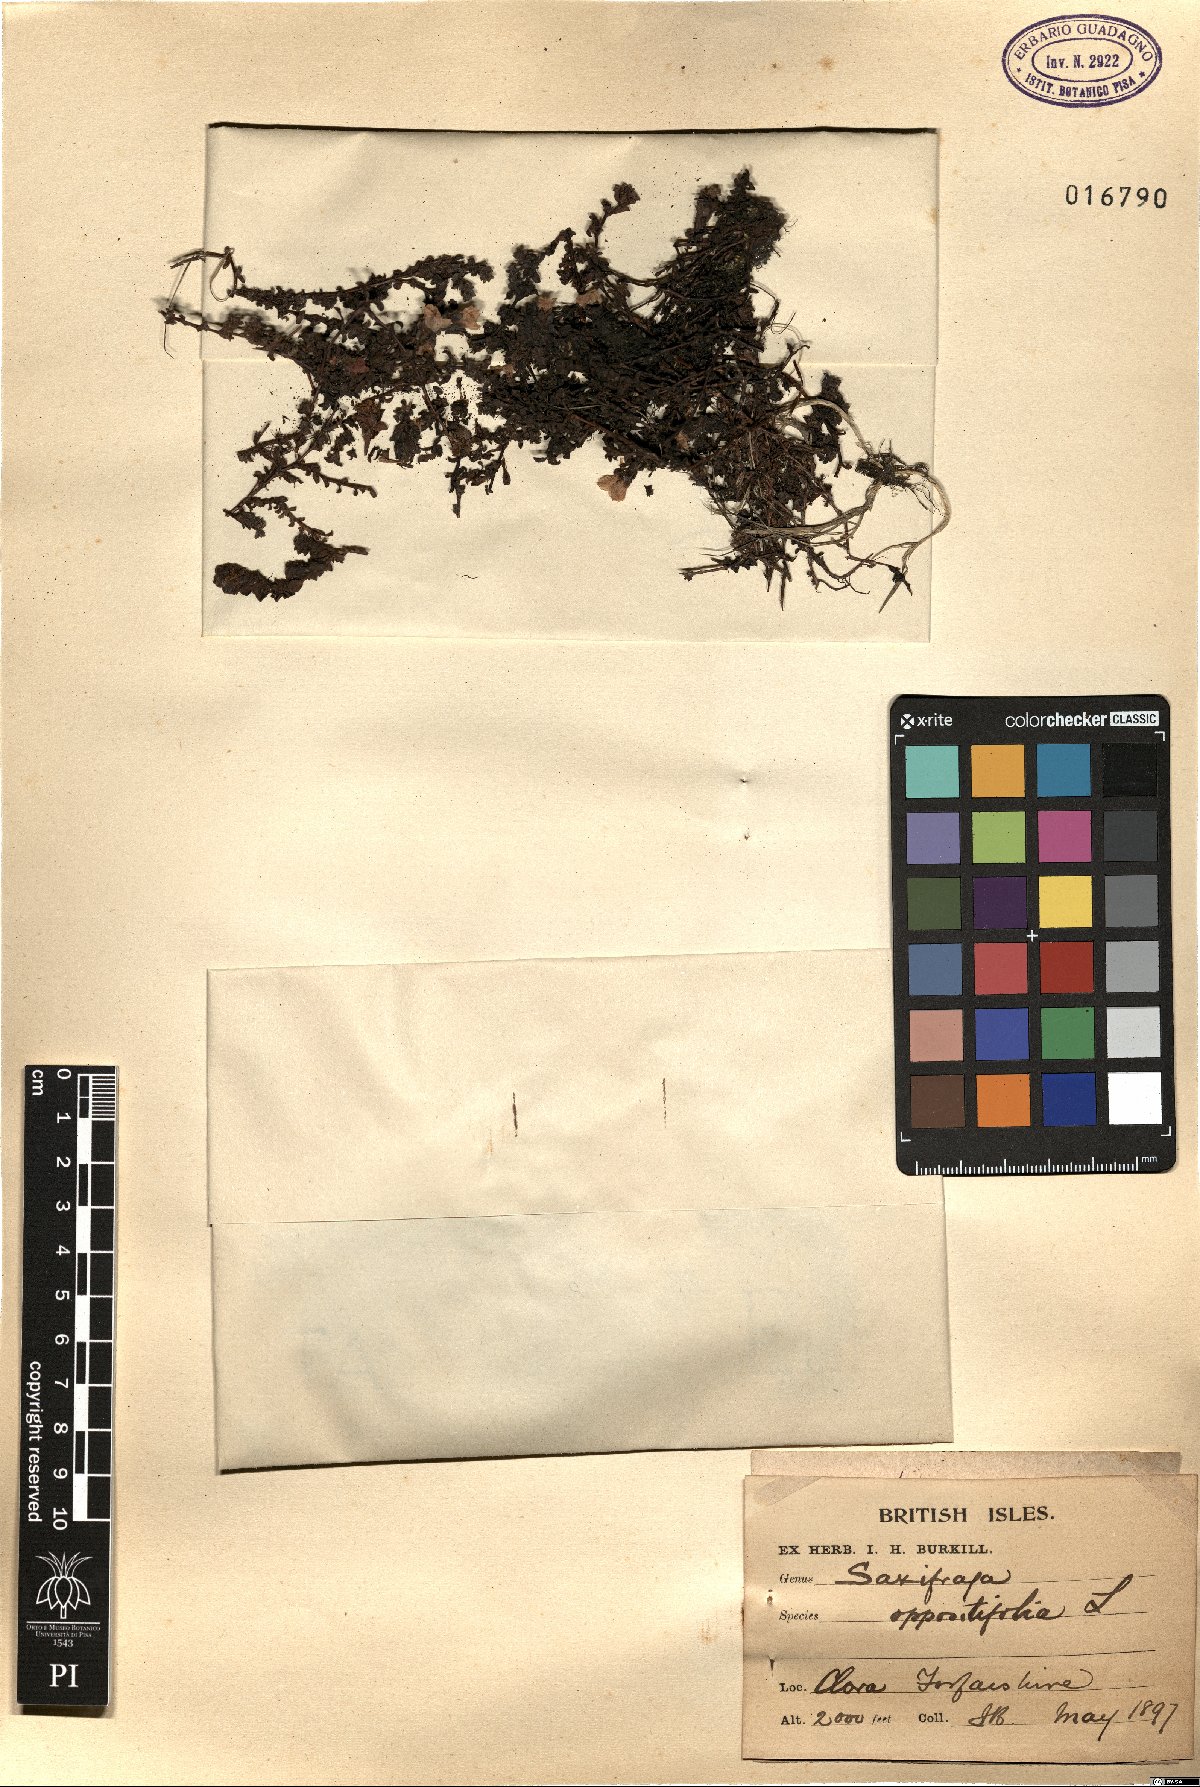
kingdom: Plantae
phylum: Tracheophyta
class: Magnoliopsida
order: Saxifragales
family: Saxifragaceae
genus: Saxifraga
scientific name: Saxifraga oppositifolia
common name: Purple saxifrage
